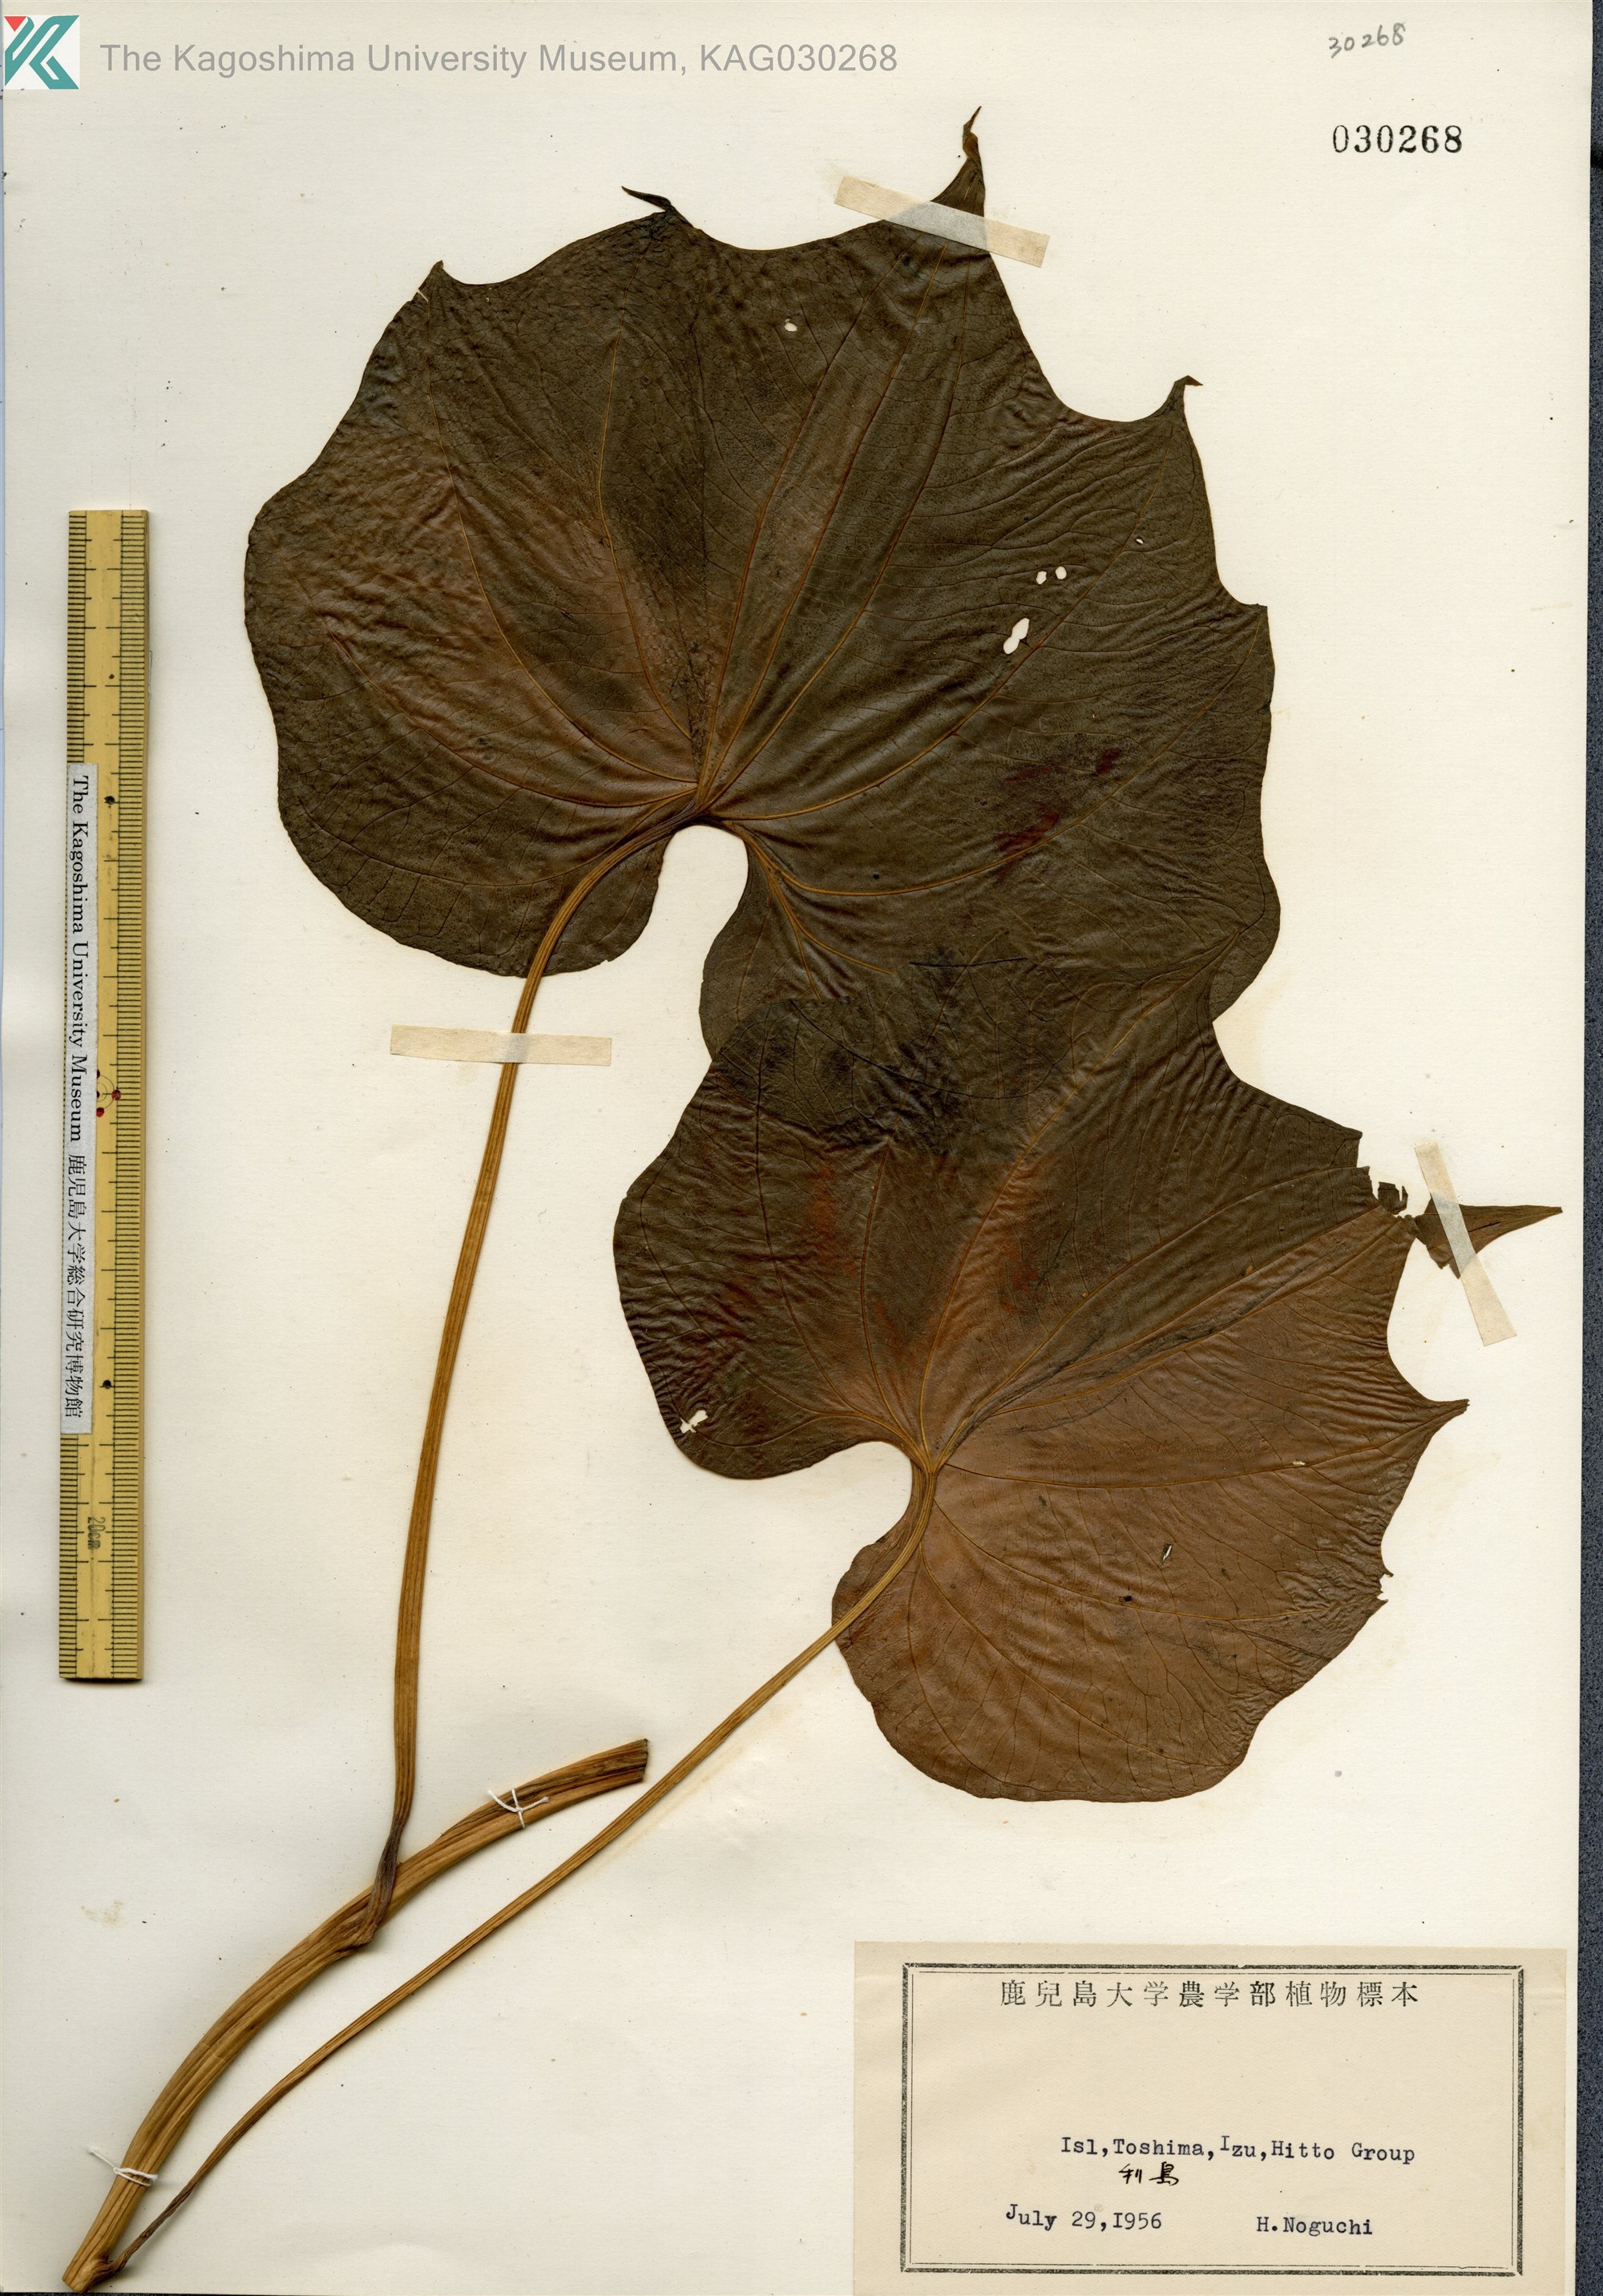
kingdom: Plantae
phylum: Tracheophyta
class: Liliopsida
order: Dioscoreales
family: Dioscoreaceae
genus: Dioscorea
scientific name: Dioscorea
